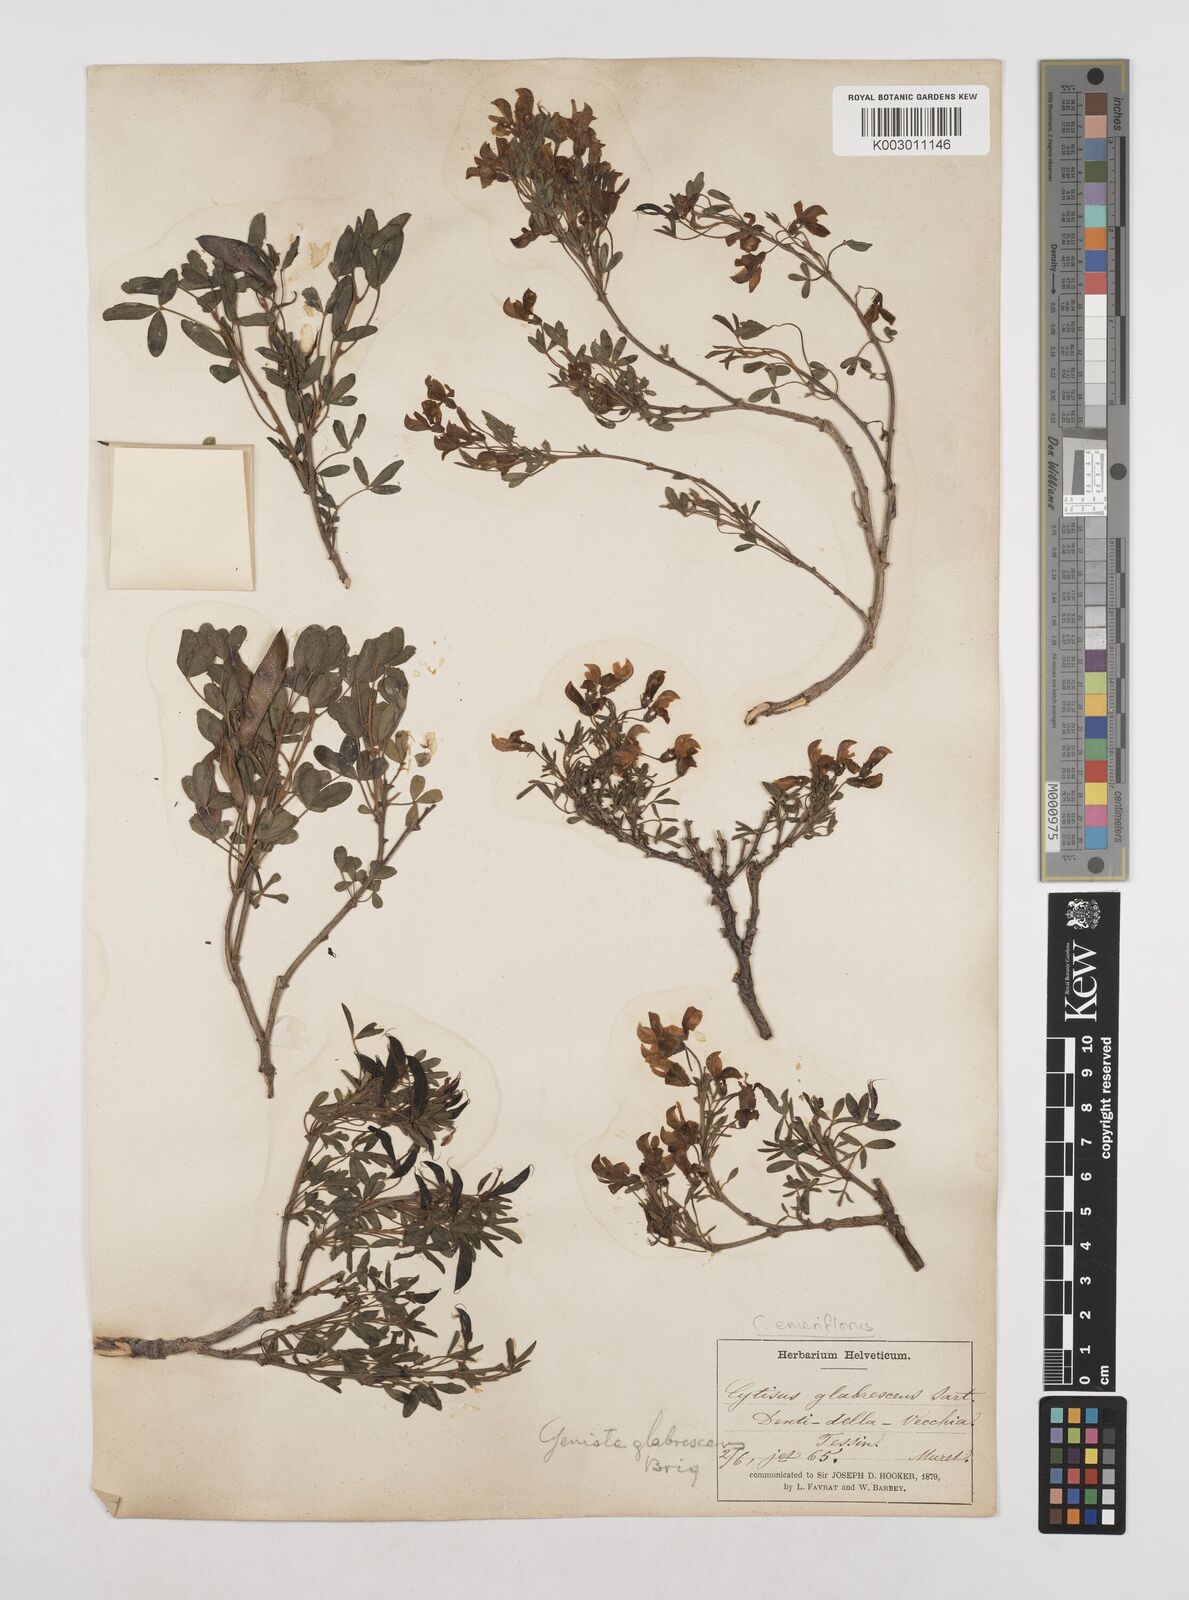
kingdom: Plantae
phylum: Tracheophyta
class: Magnoliopsida
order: Fabales
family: Fabaceae
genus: Cytisus
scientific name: Cytisus emeriflorus
